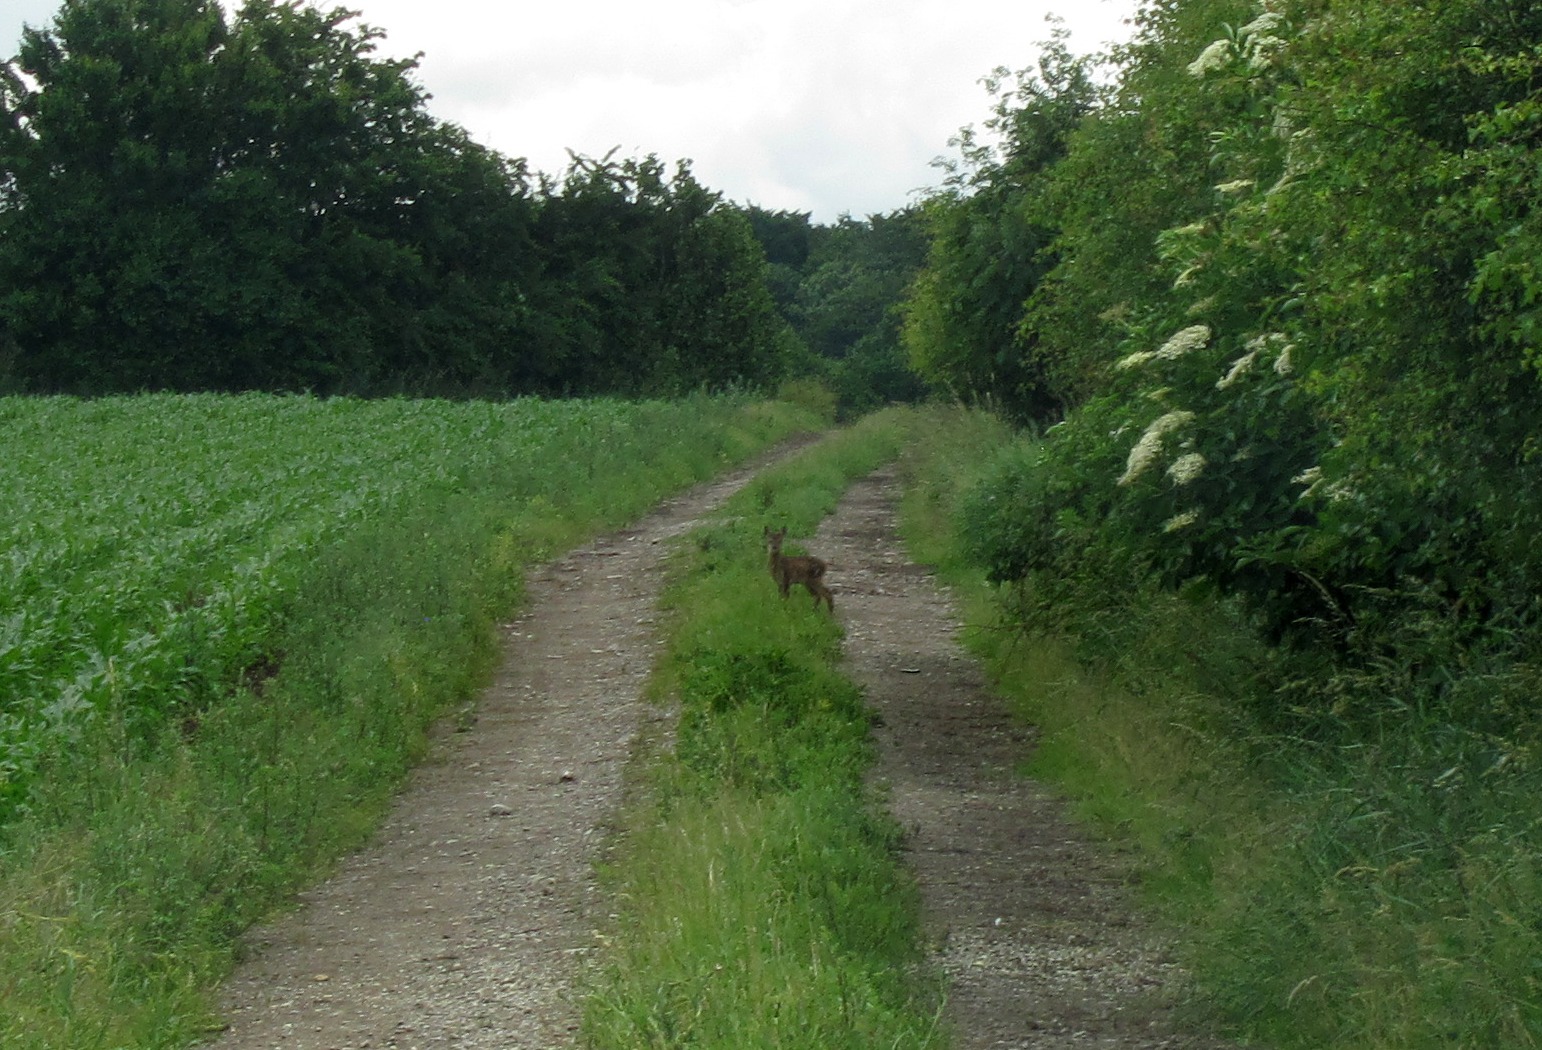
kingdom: Animalia
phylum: Chordata
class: Mammalia
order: Artiodactyla
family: Cervidae
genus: Capreolus
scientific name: Capreolus capreolus
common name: Rådyr
